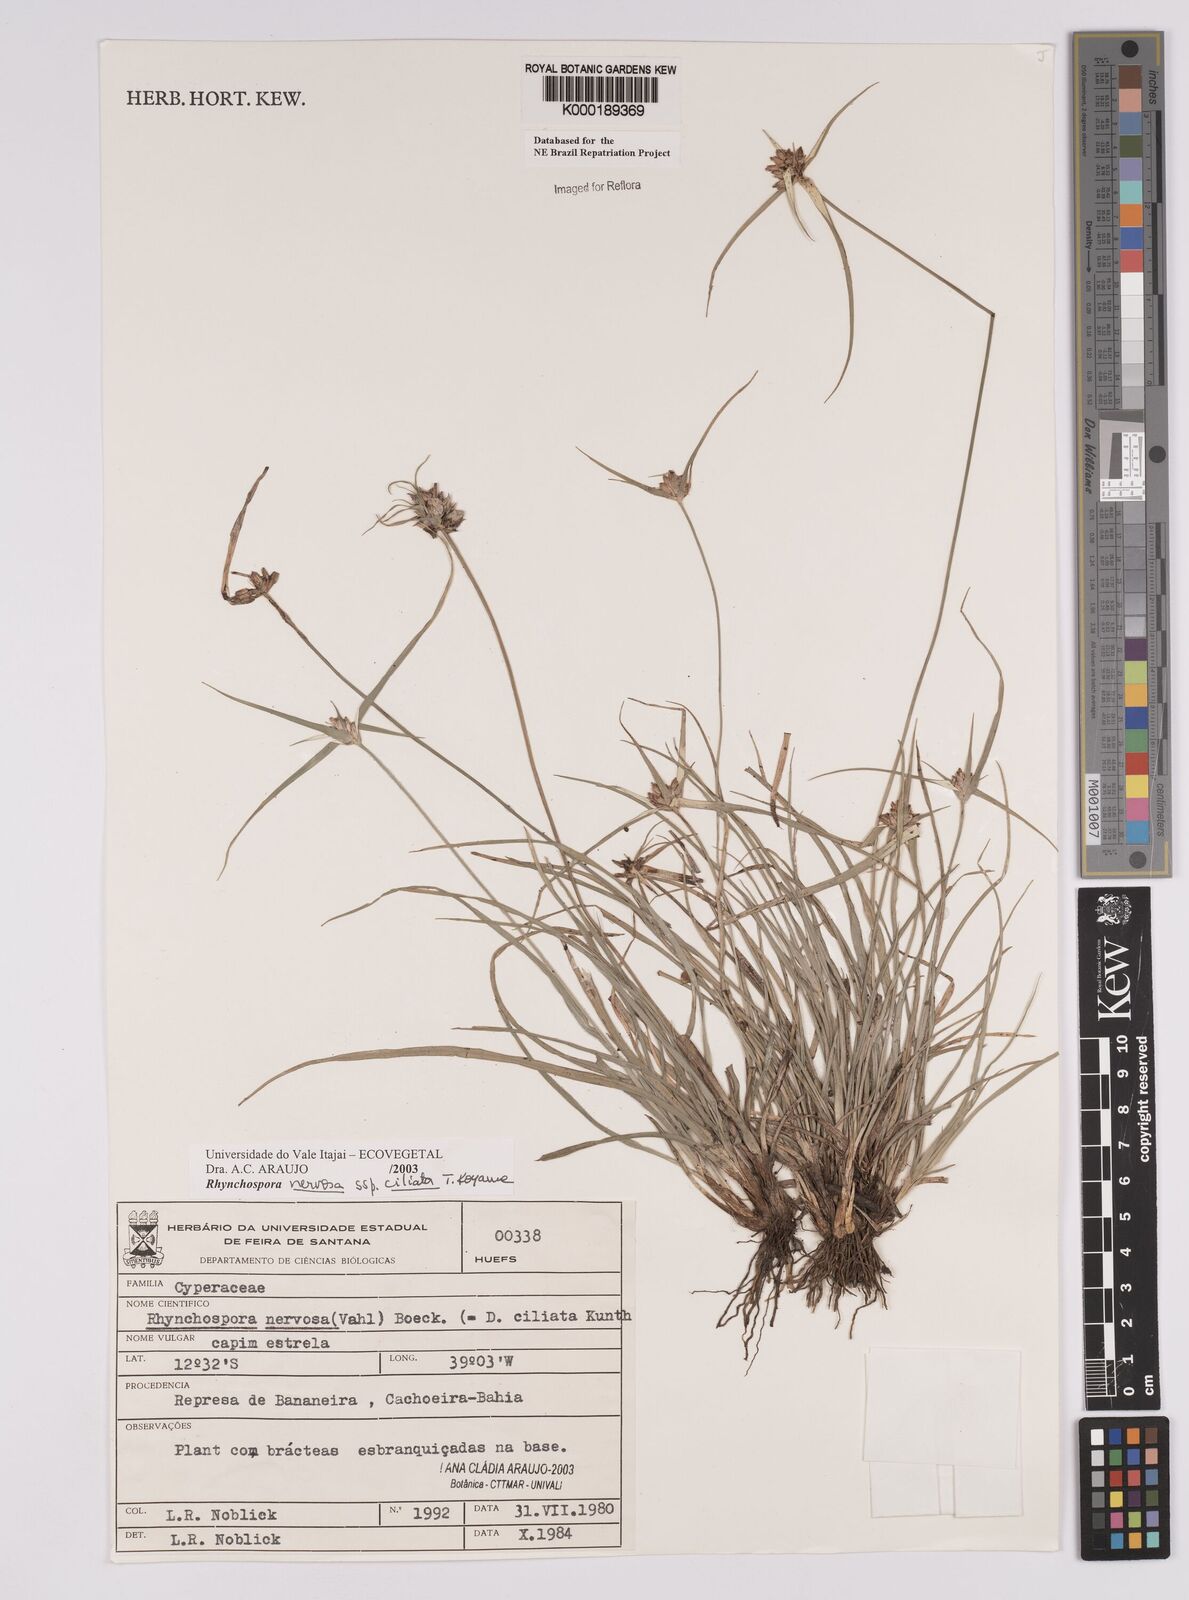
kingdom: Plantae
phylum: Tracheophyta
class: Liliopsida
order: Poales
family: Cyperaceae
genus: Rhynchospora
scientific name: Rhynchospora pura
